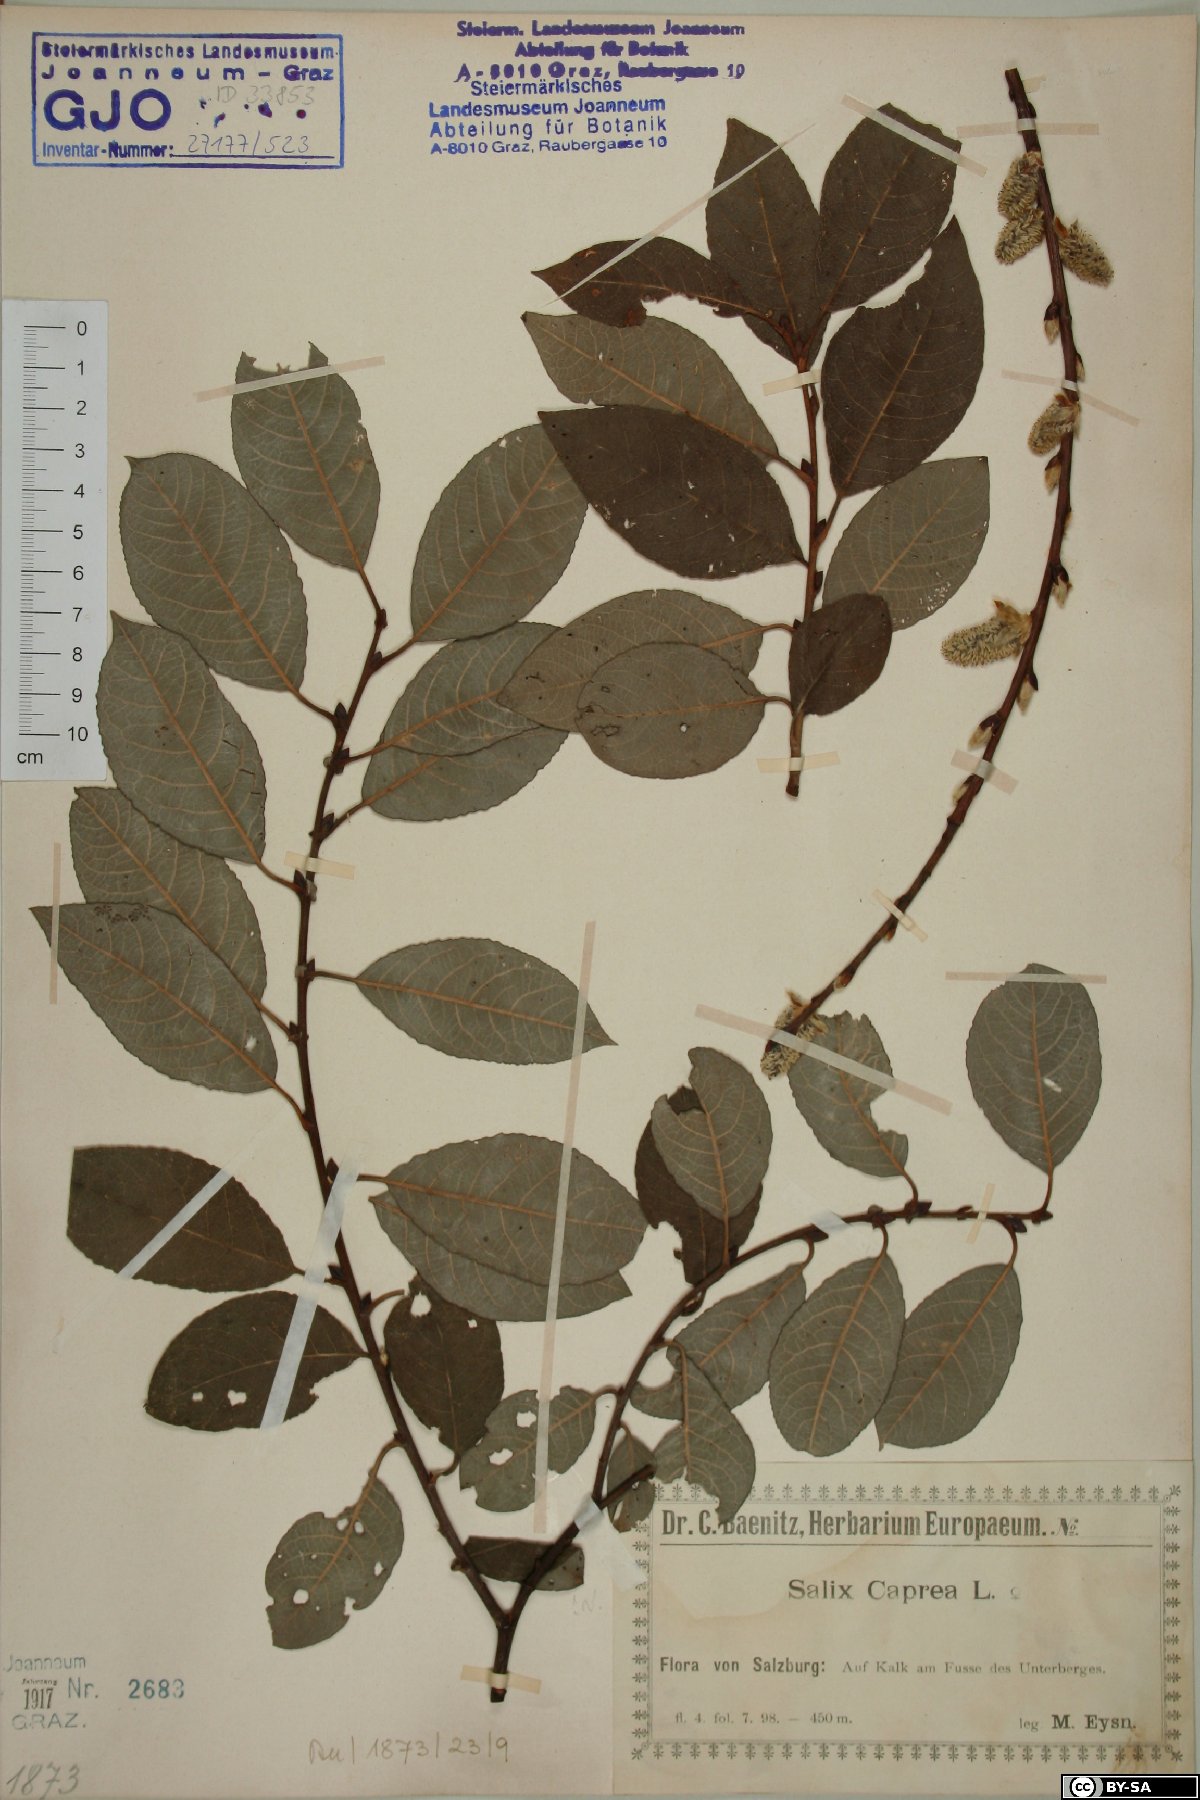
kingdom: Plantae
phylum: Tracheophyta
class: Magnoliopsida
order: Malpighiales
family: Salicaceae
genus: Salix
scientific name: Salix caprea
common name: Goat willow
